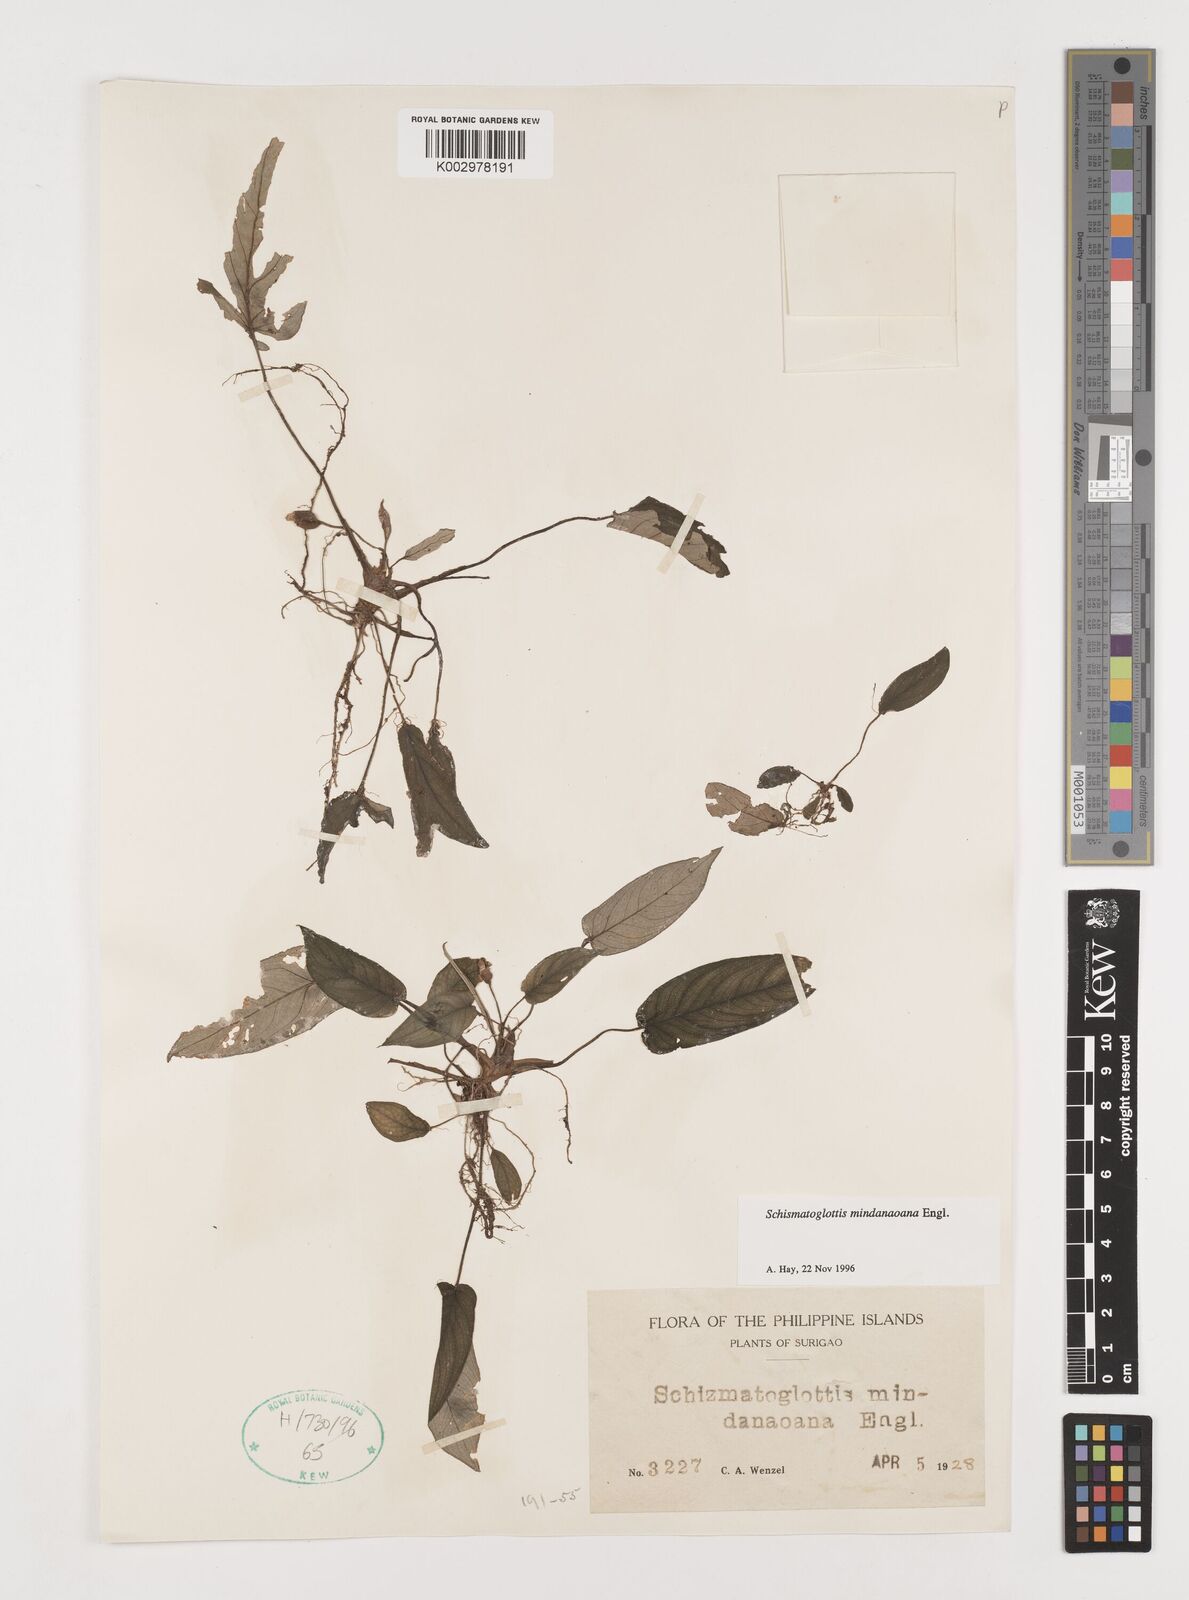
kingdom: Plantae
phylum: Tracheophyta
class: Liliopsida
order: Alismatales
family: Araceae
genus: Schismatoglottis
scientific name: Schismatoglottis mindanaoana
